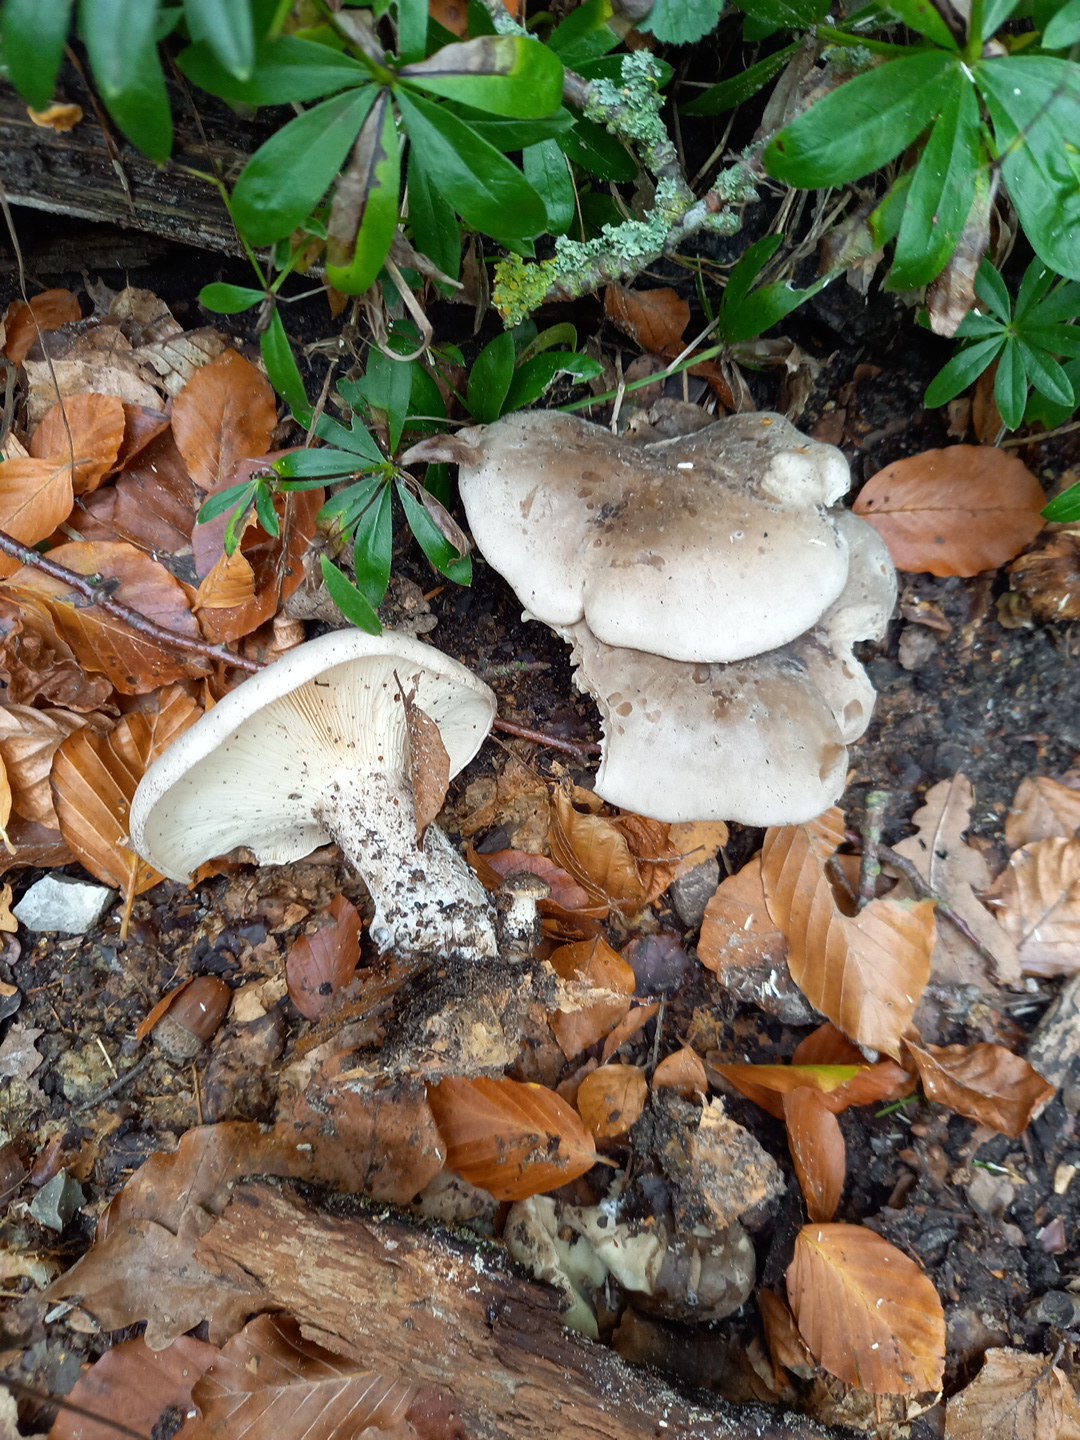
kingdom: Fungi
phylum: Basidiomycota
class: Agaricomycetes
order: Agaricales
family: Tricholomataceae
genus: Clitocybe
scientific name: Clitocybe nebularis
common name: tåge-tragthat
